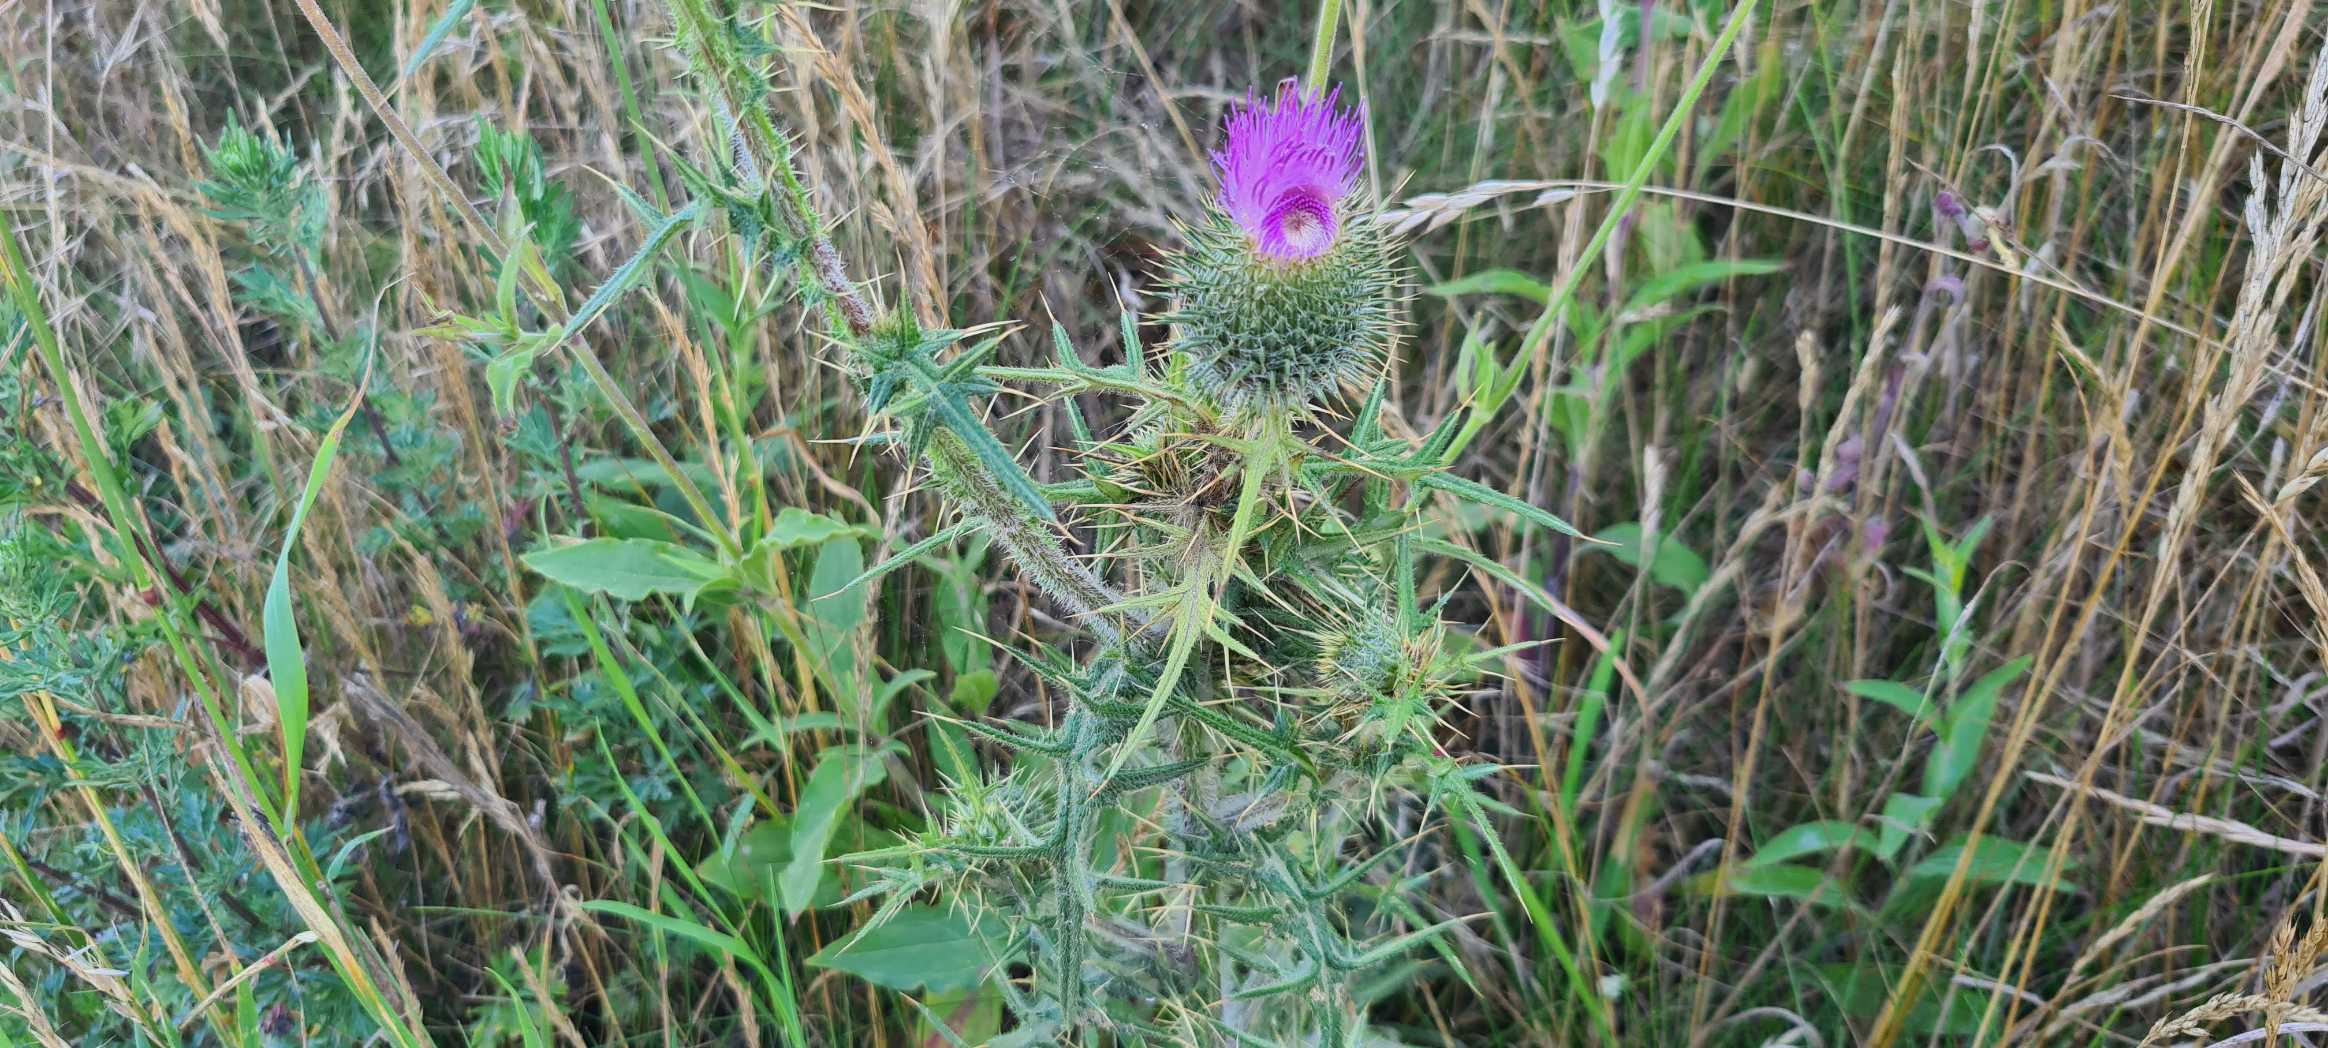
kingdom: Plantae
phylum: Tracheophyta
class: Magnoliopsida
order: Asterales
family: Asteraceae
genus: Cirsium
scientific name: Cirsium vulgare
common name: Horse-tidsel
